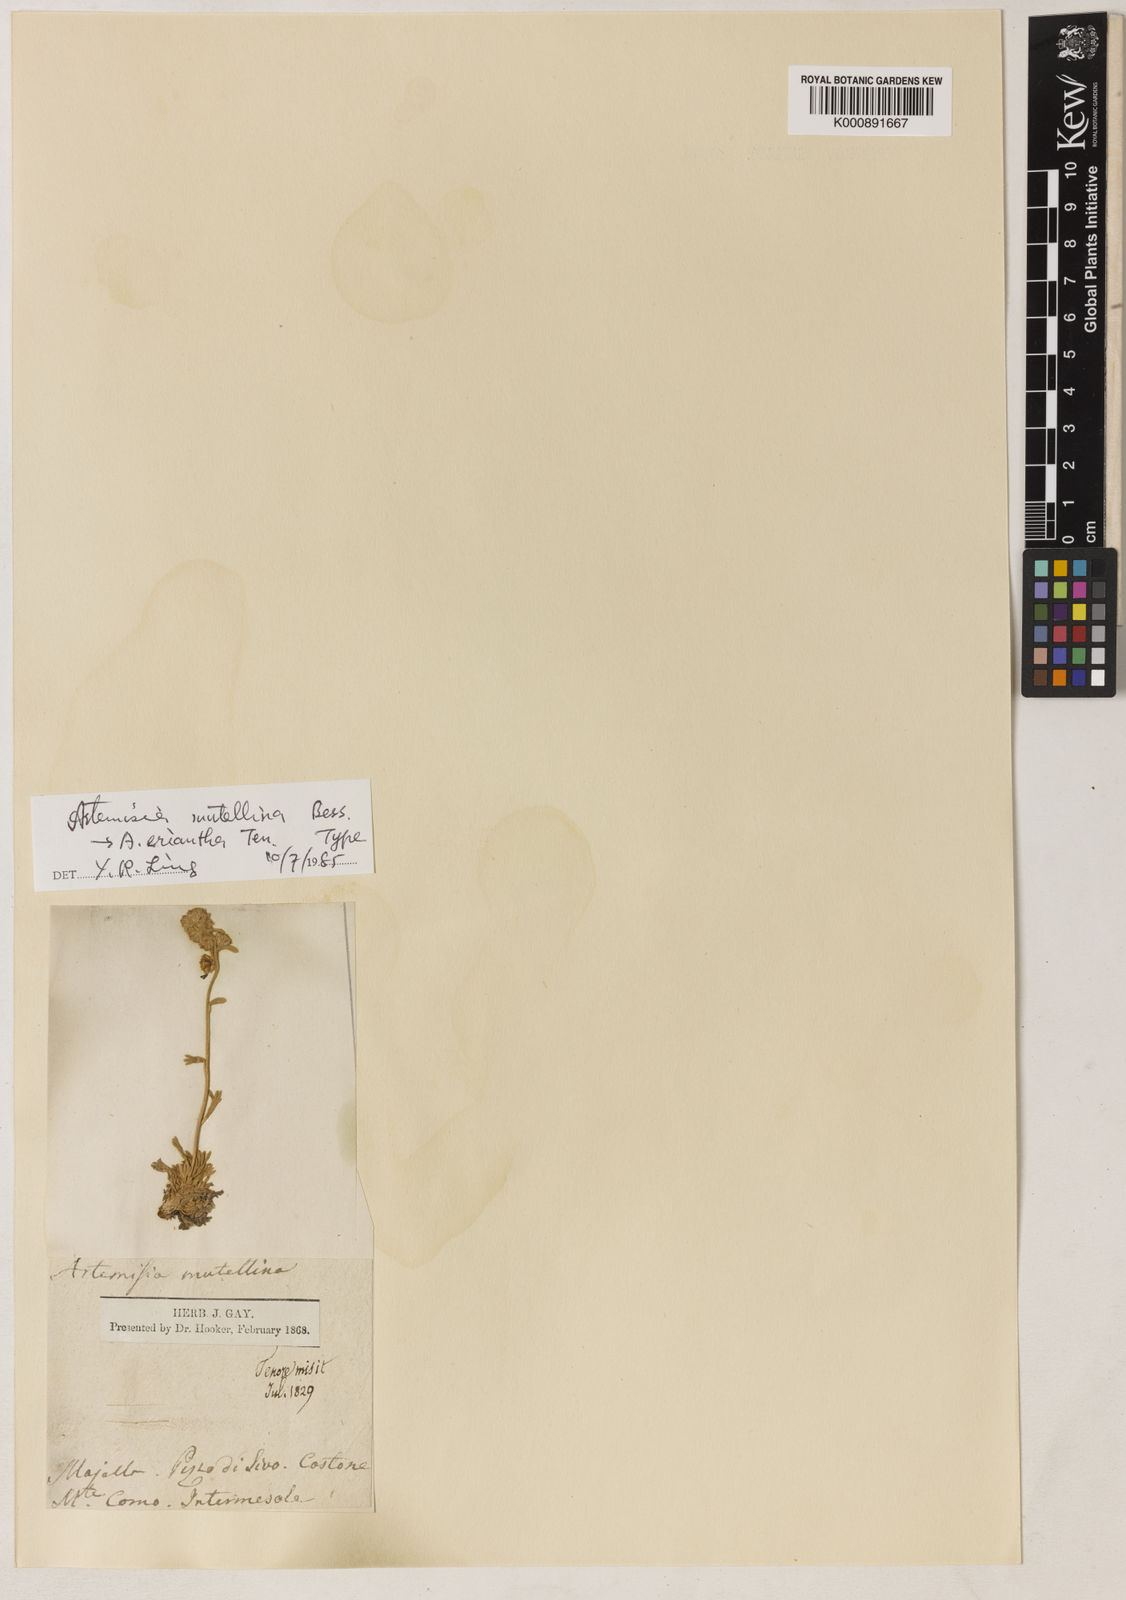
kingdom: Plantae
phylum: Tracheophyta
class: Magnoliopsida
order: Asterales
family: Asteraceae
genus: Artemisia
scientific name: Artemisia eriantha
